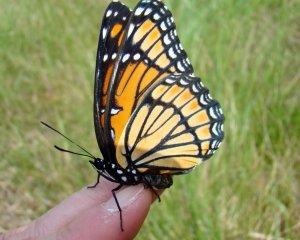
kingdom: Animalia
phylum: Arthropoda
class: Insecta
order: Lepidoptera
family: Nymphalidae
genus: Limenitis
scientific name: Limenitis archippus
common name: Viceroy
